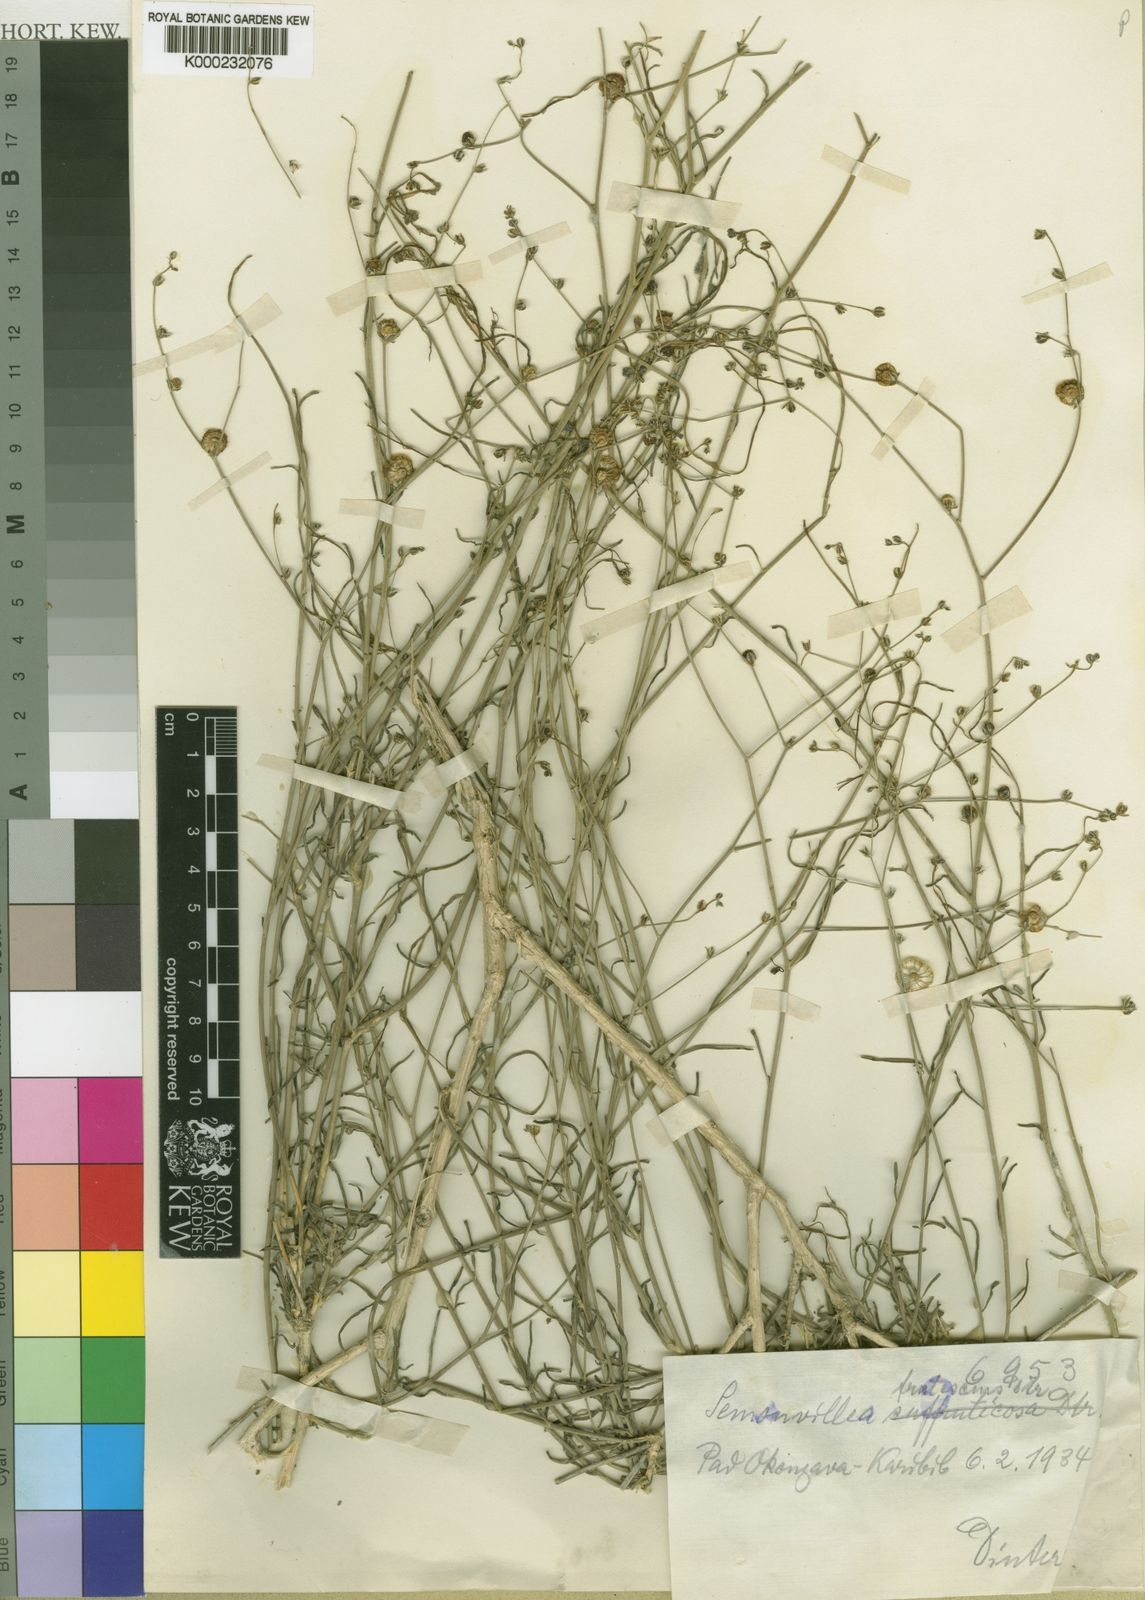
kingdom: Plantae
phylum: Tracheophyta
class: Magnoliopsida
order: Caryophyllales
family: Limeaceae
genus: Limeum
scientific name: Limeum
